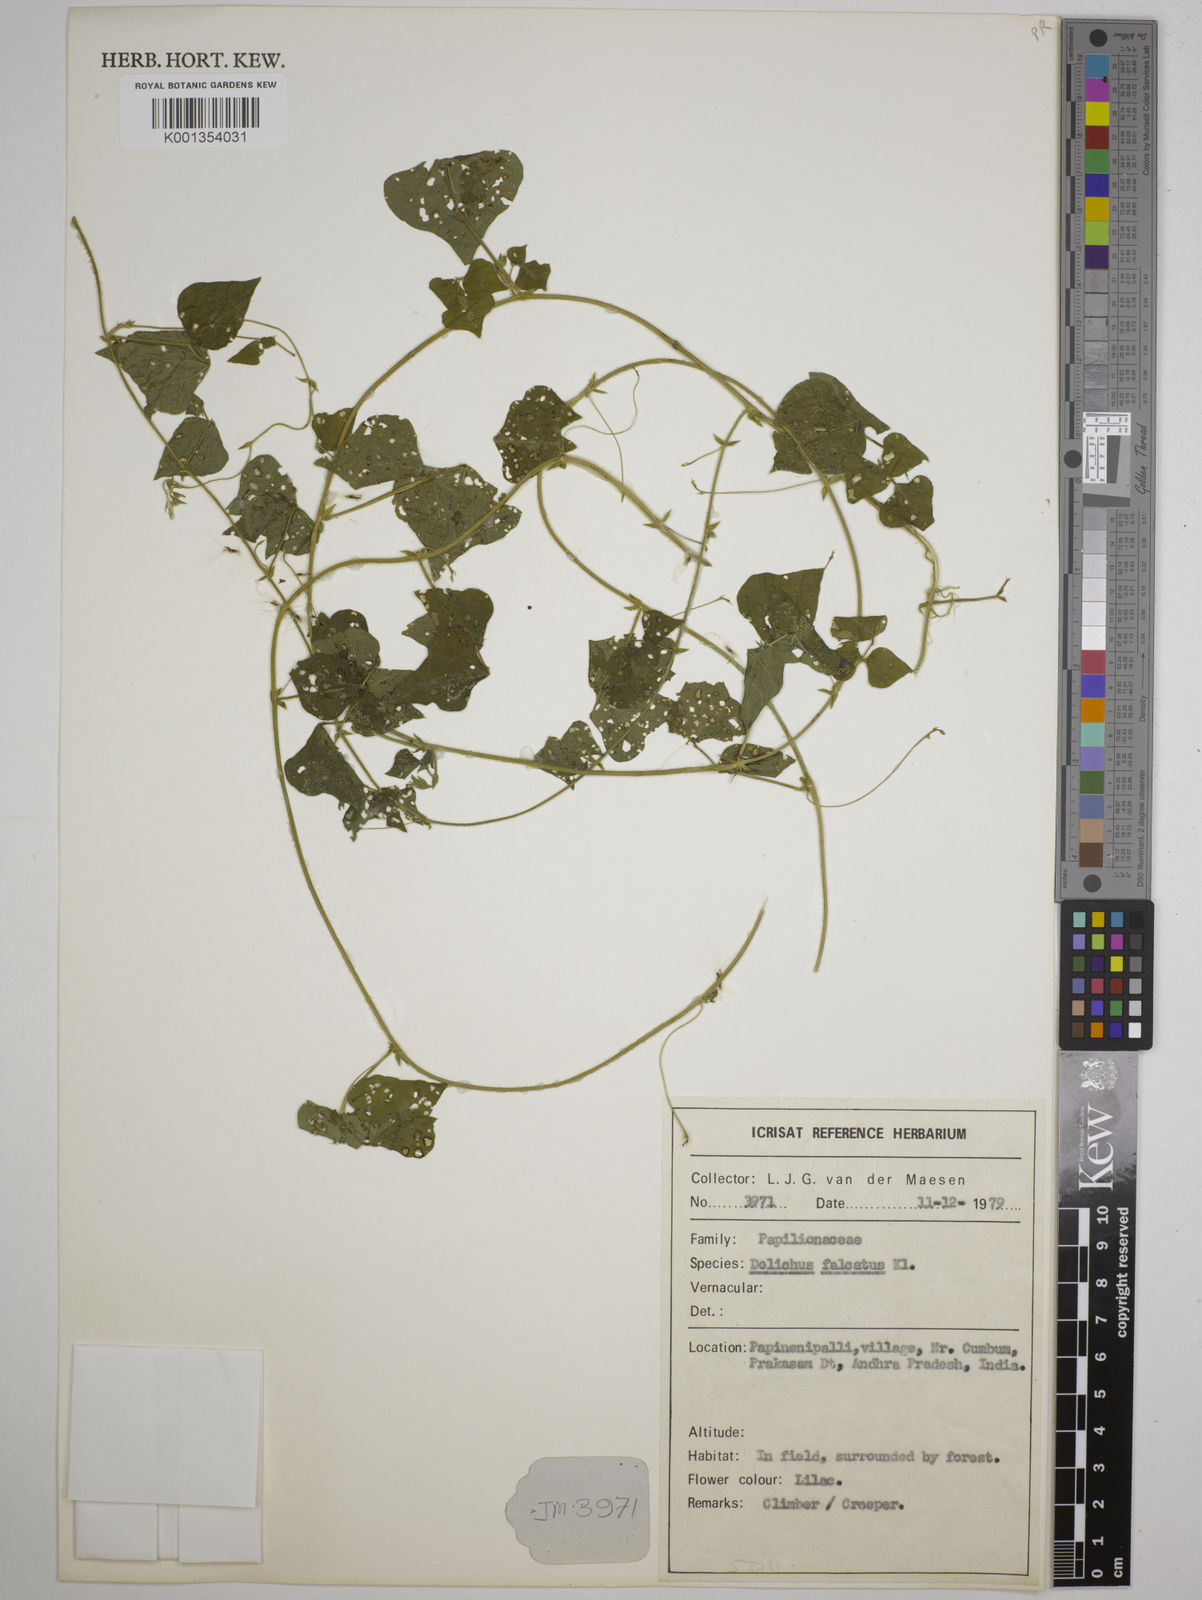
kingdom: Plantae
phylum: Tracheophyta
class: Magnoliopsida
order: Fabales
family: Fabaceae
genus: Dolichos
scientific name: Dolichos trilobus
